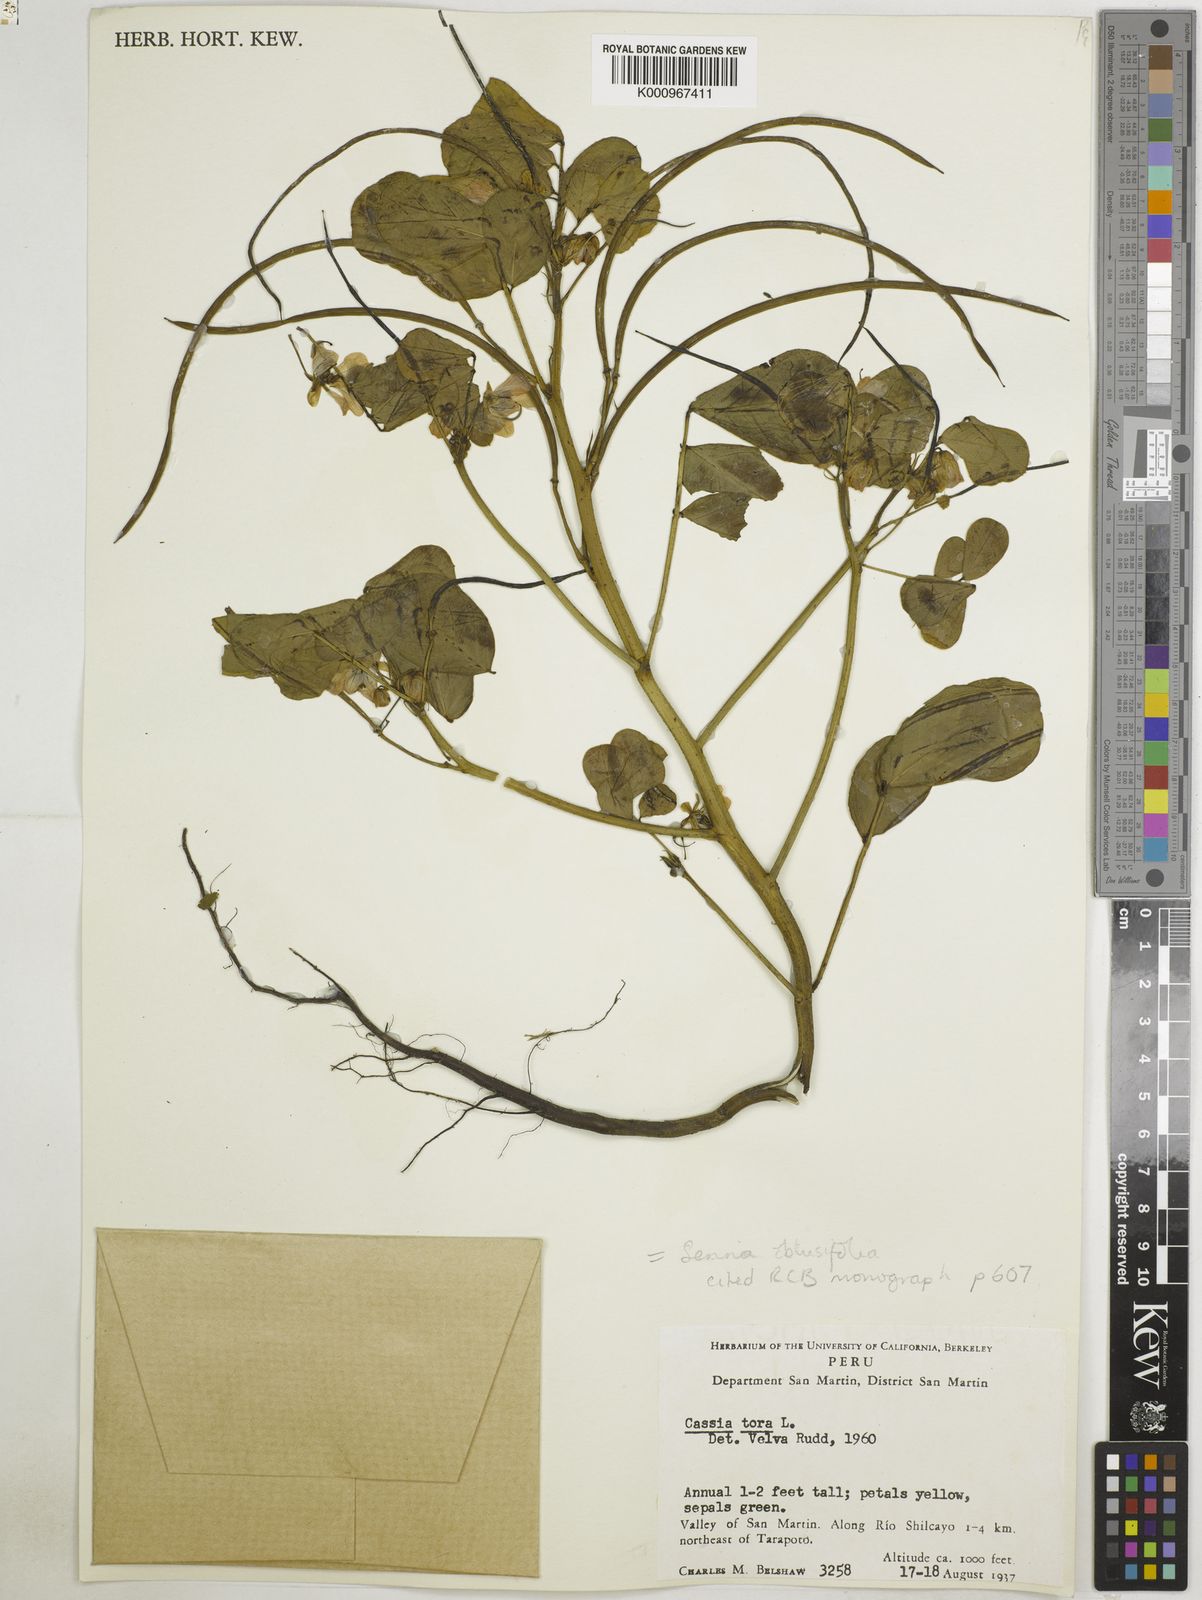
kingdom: Plantae
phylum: Tracheophyta
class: Magnoliopsida
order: Fabales
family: Fabaceae
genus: Senna
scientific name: Senna obtusifolia
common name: Java-bean
